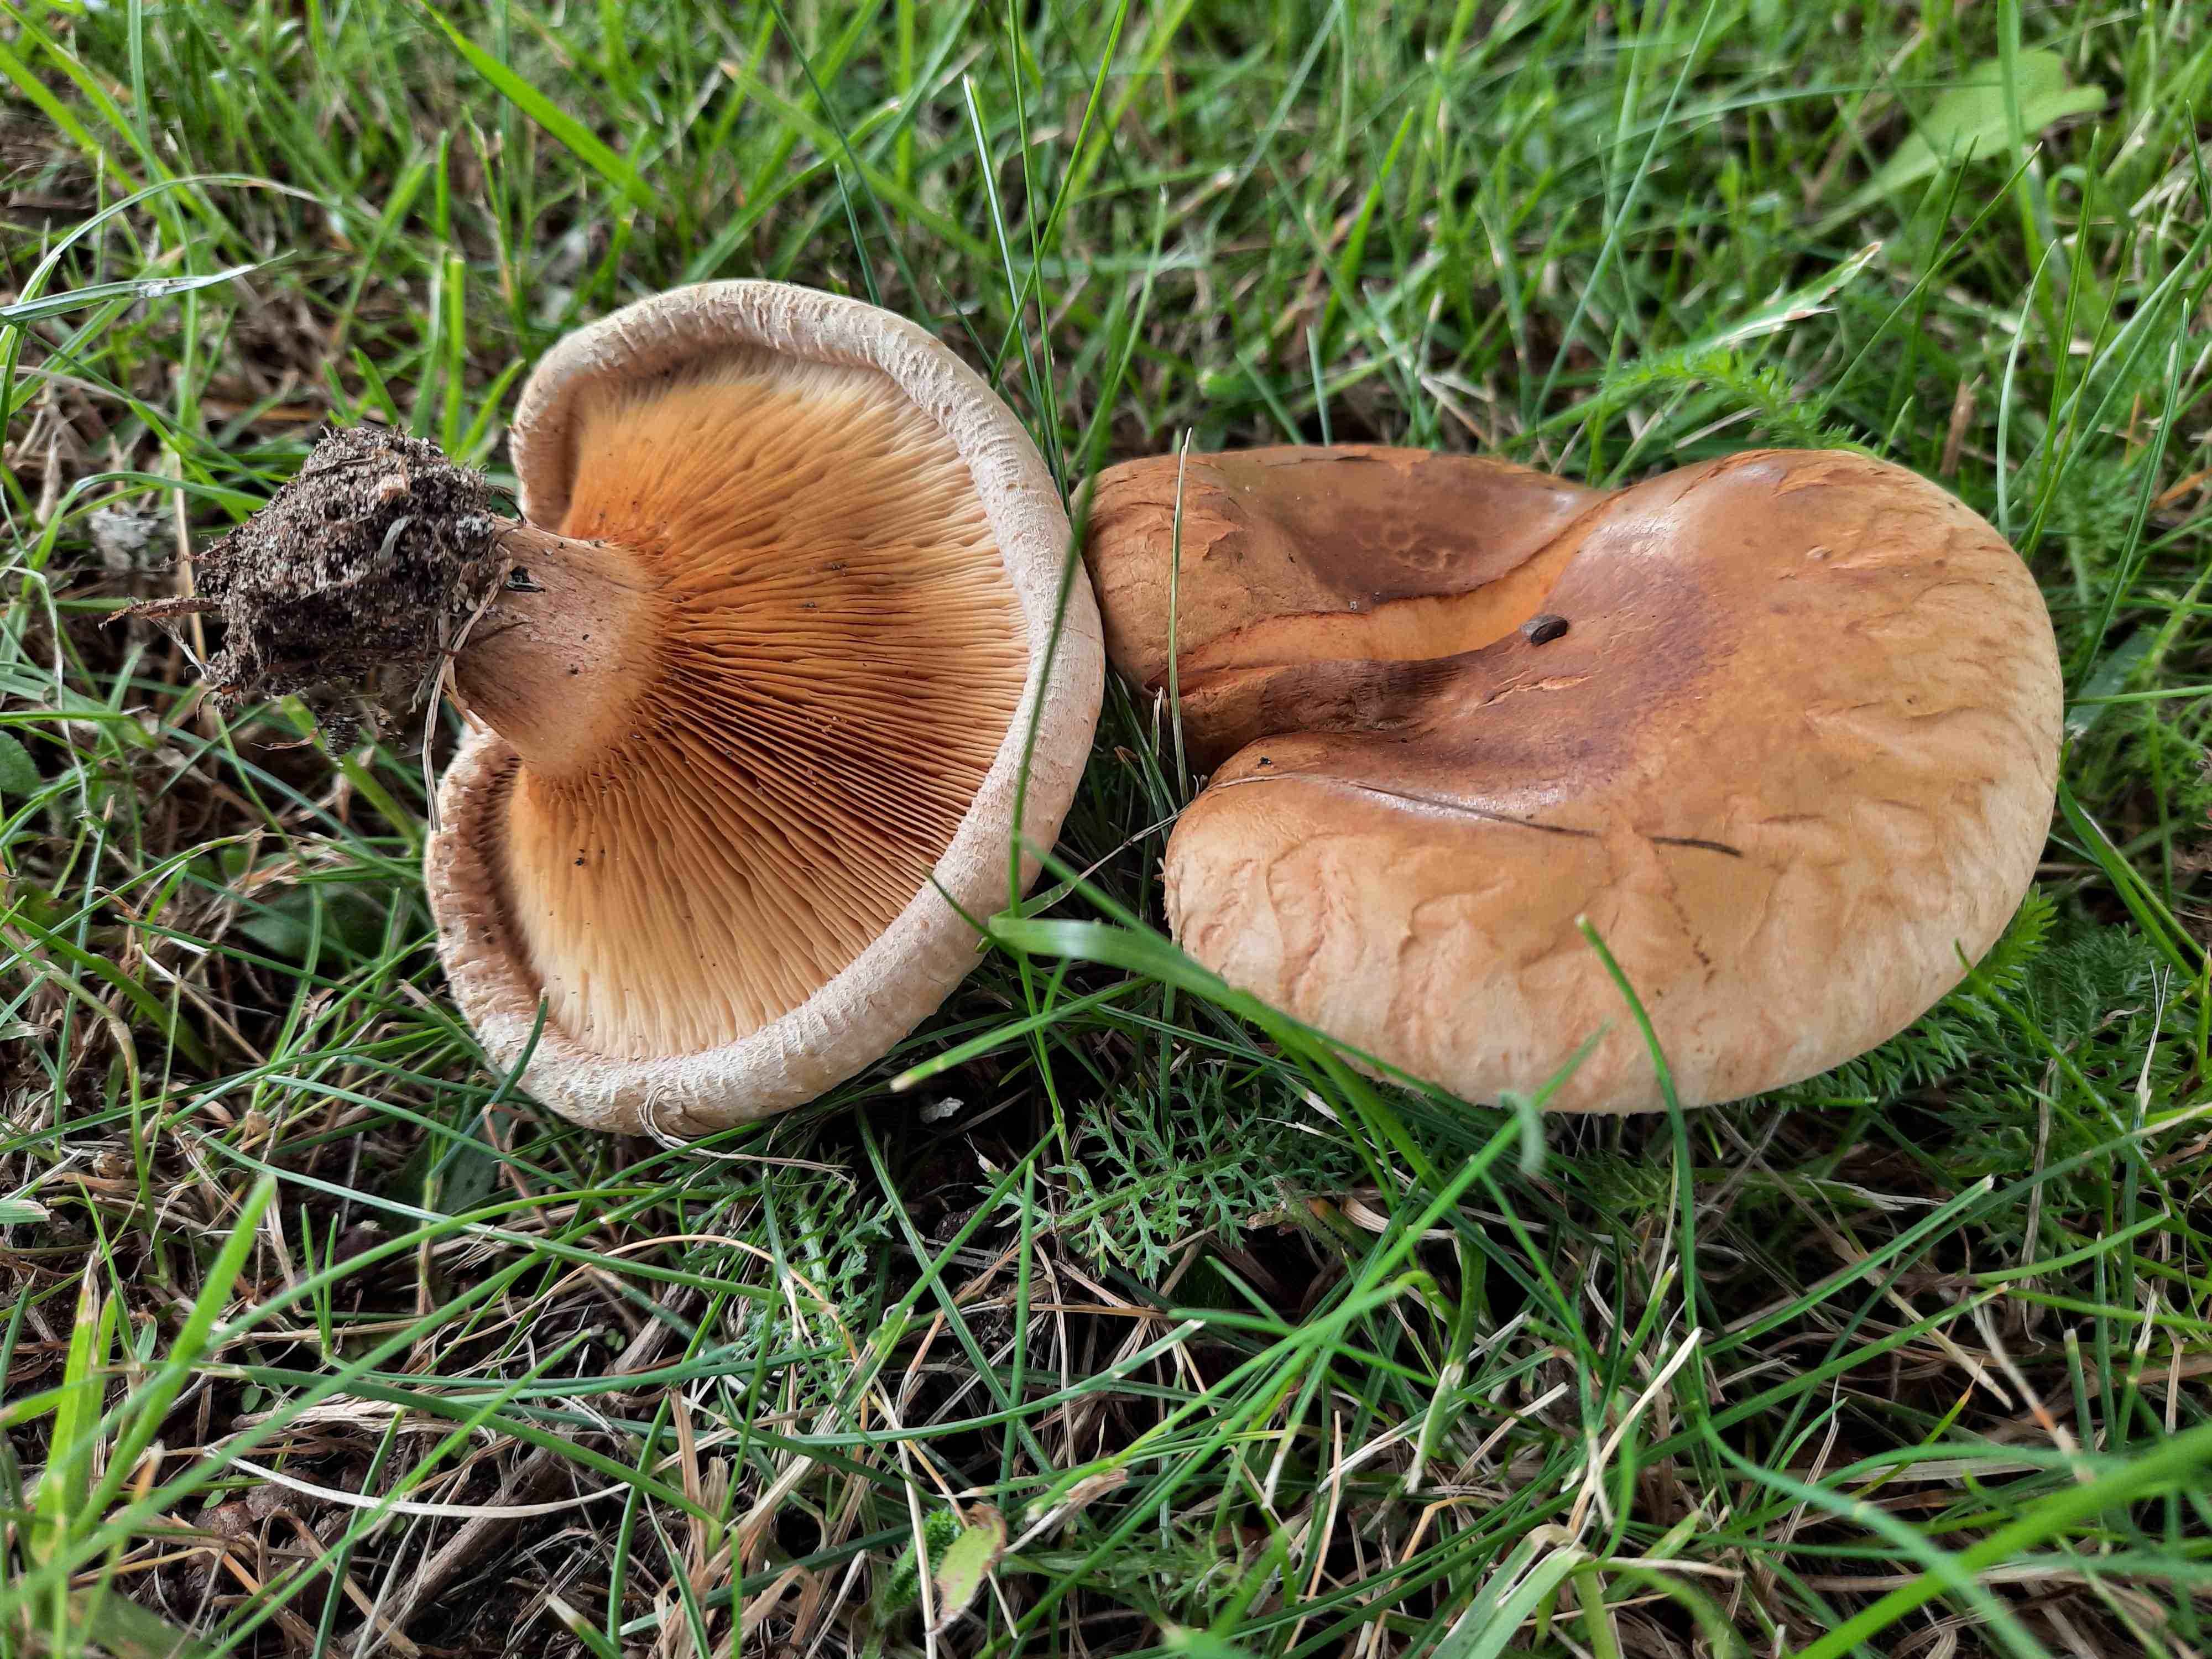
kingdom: Fungi
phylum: Basidiomycota
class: Agaricomycetes
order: Boletales
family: Paxillaceae
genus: Paxillus
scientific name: Paxillus obscurisporus
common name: mahognisporet netbladhat
